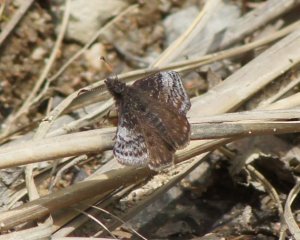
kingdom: Animalia
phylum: Arthropoda
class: Insecta
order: Lepidoptera
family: Hesperiidae
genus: Erynnis
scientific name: Erynnis icelus
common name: Dreamy Duskywing
